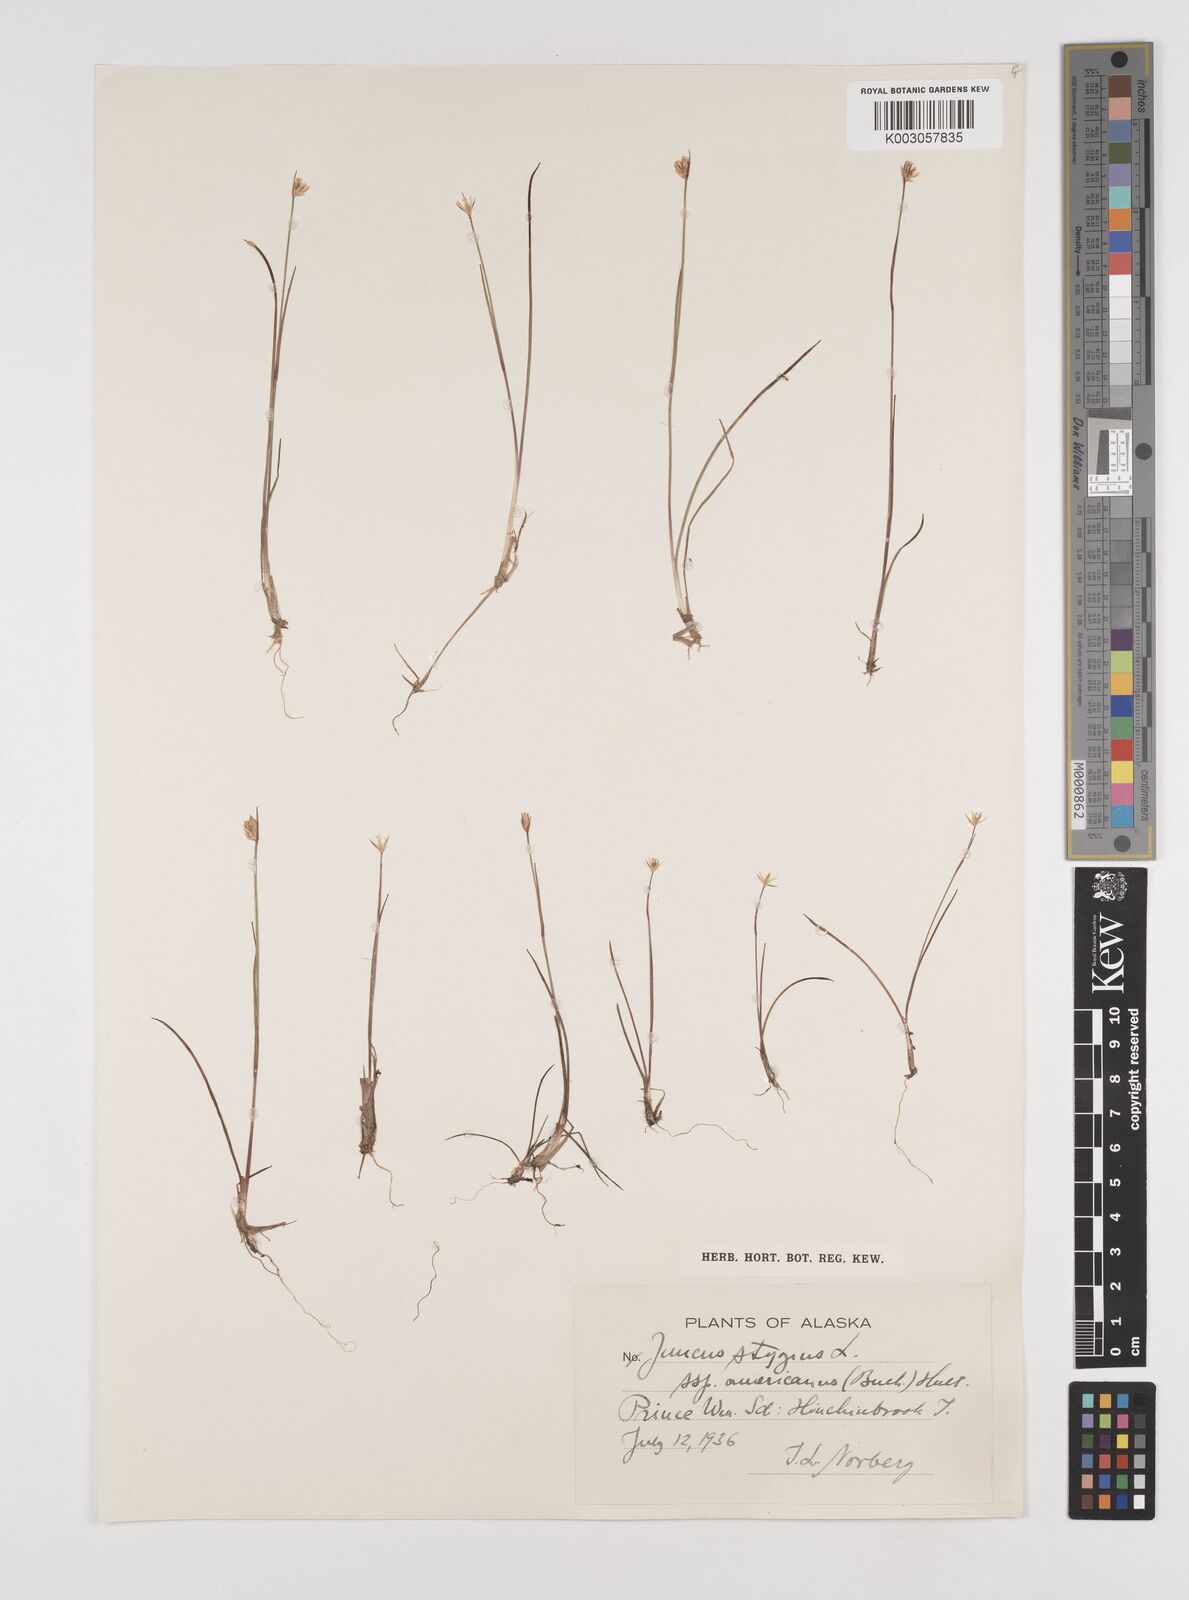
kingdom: Plantae
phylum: Tracheophyta
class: Liliopsida
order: Poales
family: Juncaceae
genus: Juncus
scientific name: Juncus stygius
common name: Bog rush
